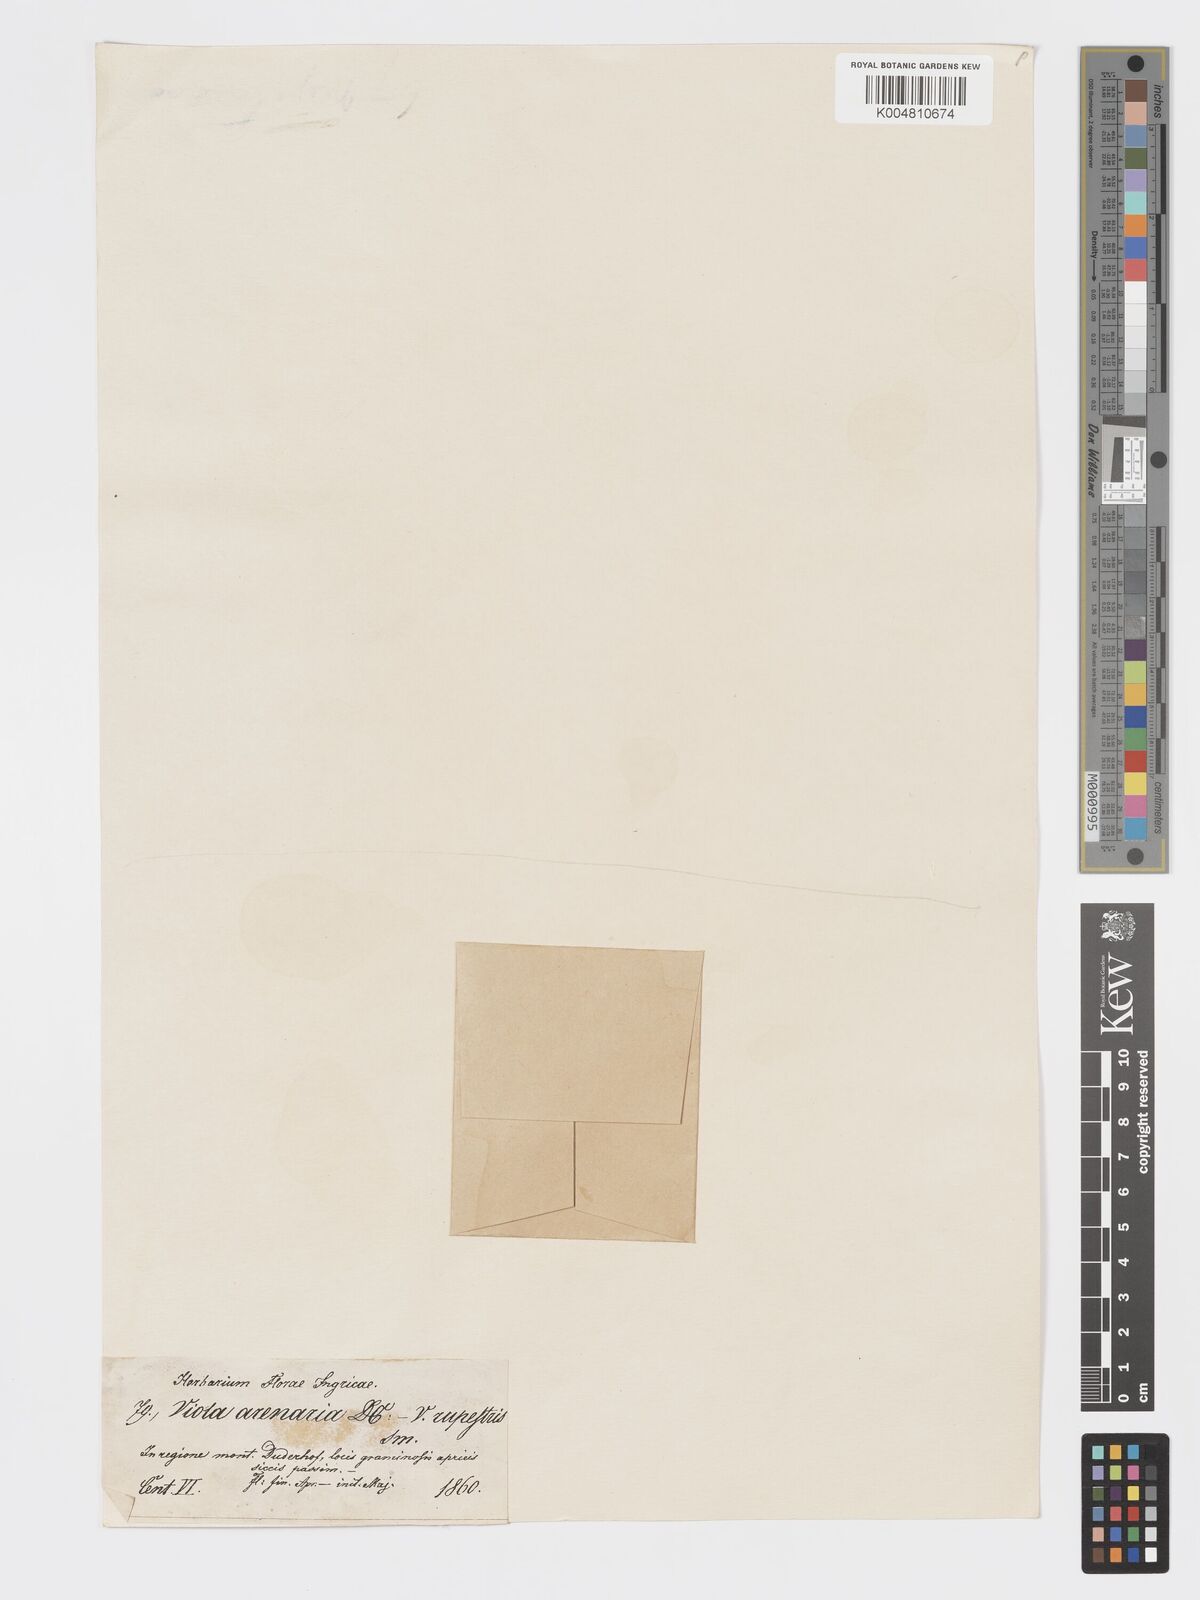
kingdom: Plantae
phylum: Tracheophyta
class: Magnoliopsida
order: Malpighiales
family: Violaceae
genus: Viola
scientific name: Viola rupestris
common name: Teesdale violet
